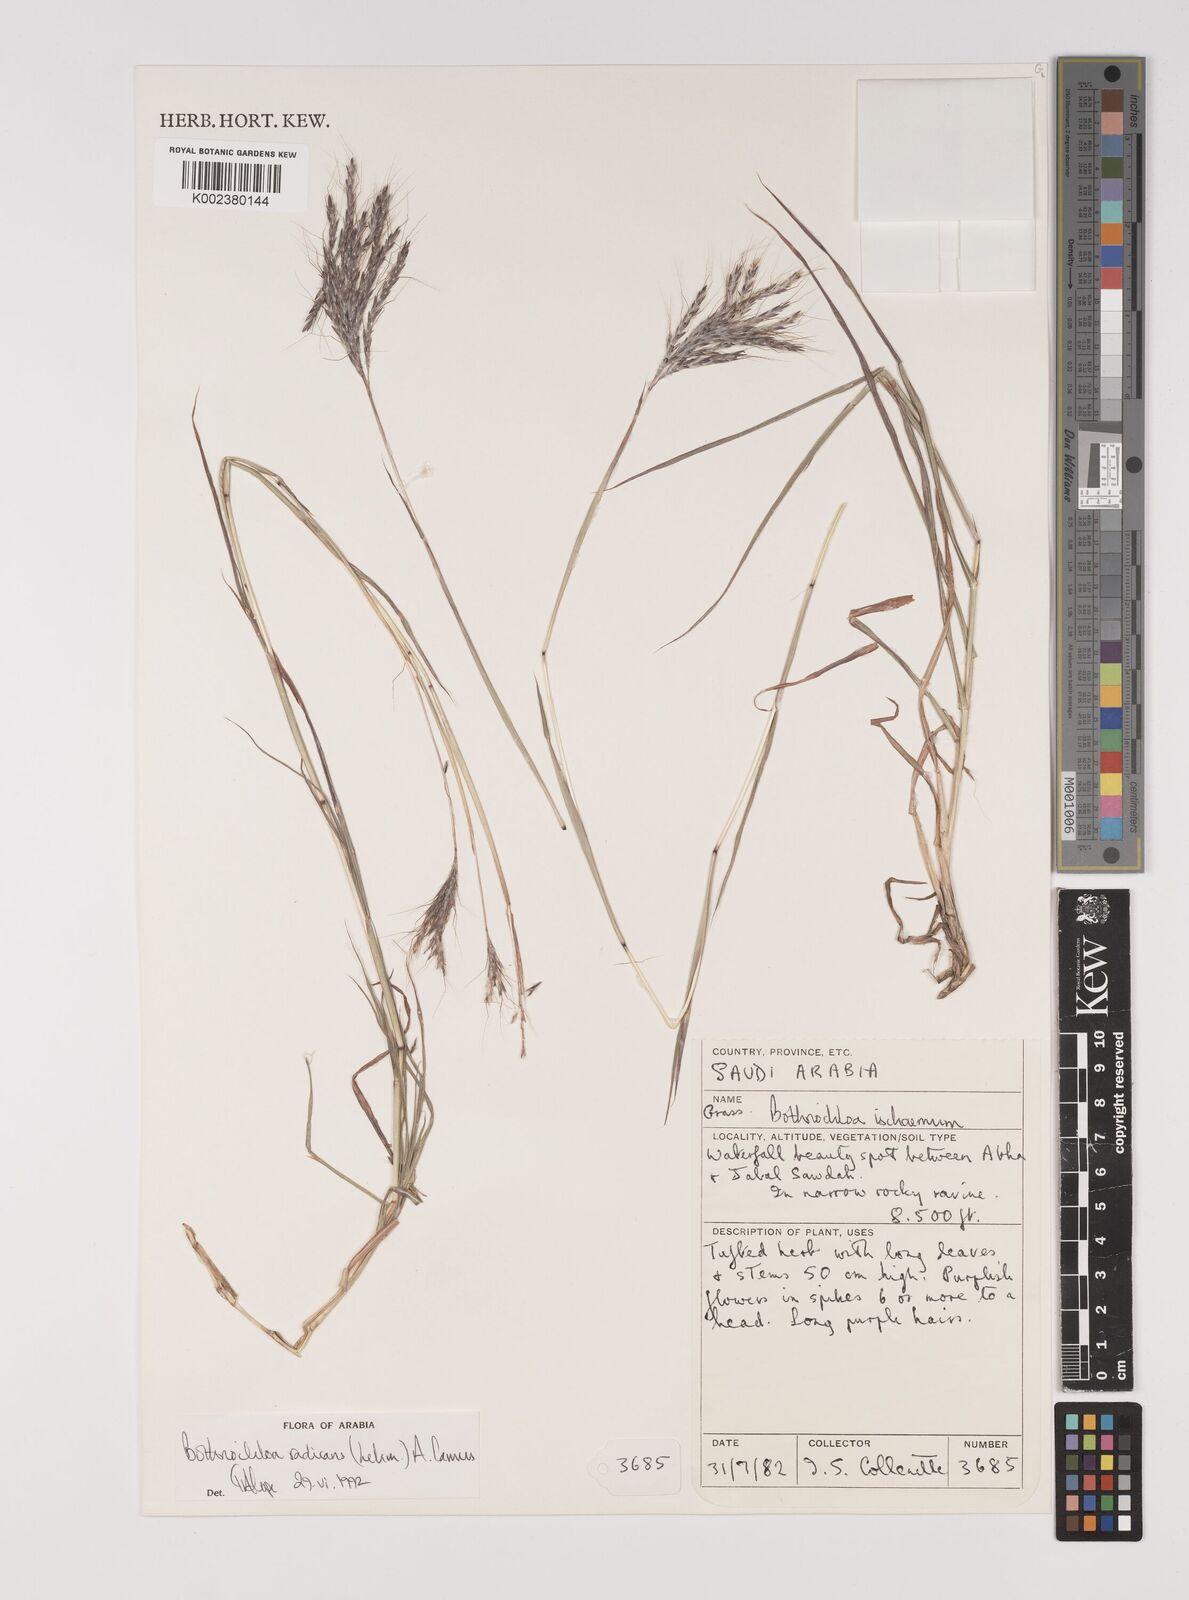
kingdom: Plantae
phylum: Tracheophyta
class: Liliopsida
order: Poales
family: Poaceae
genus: Bothriochloa
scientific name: Bothriochloa radicans
